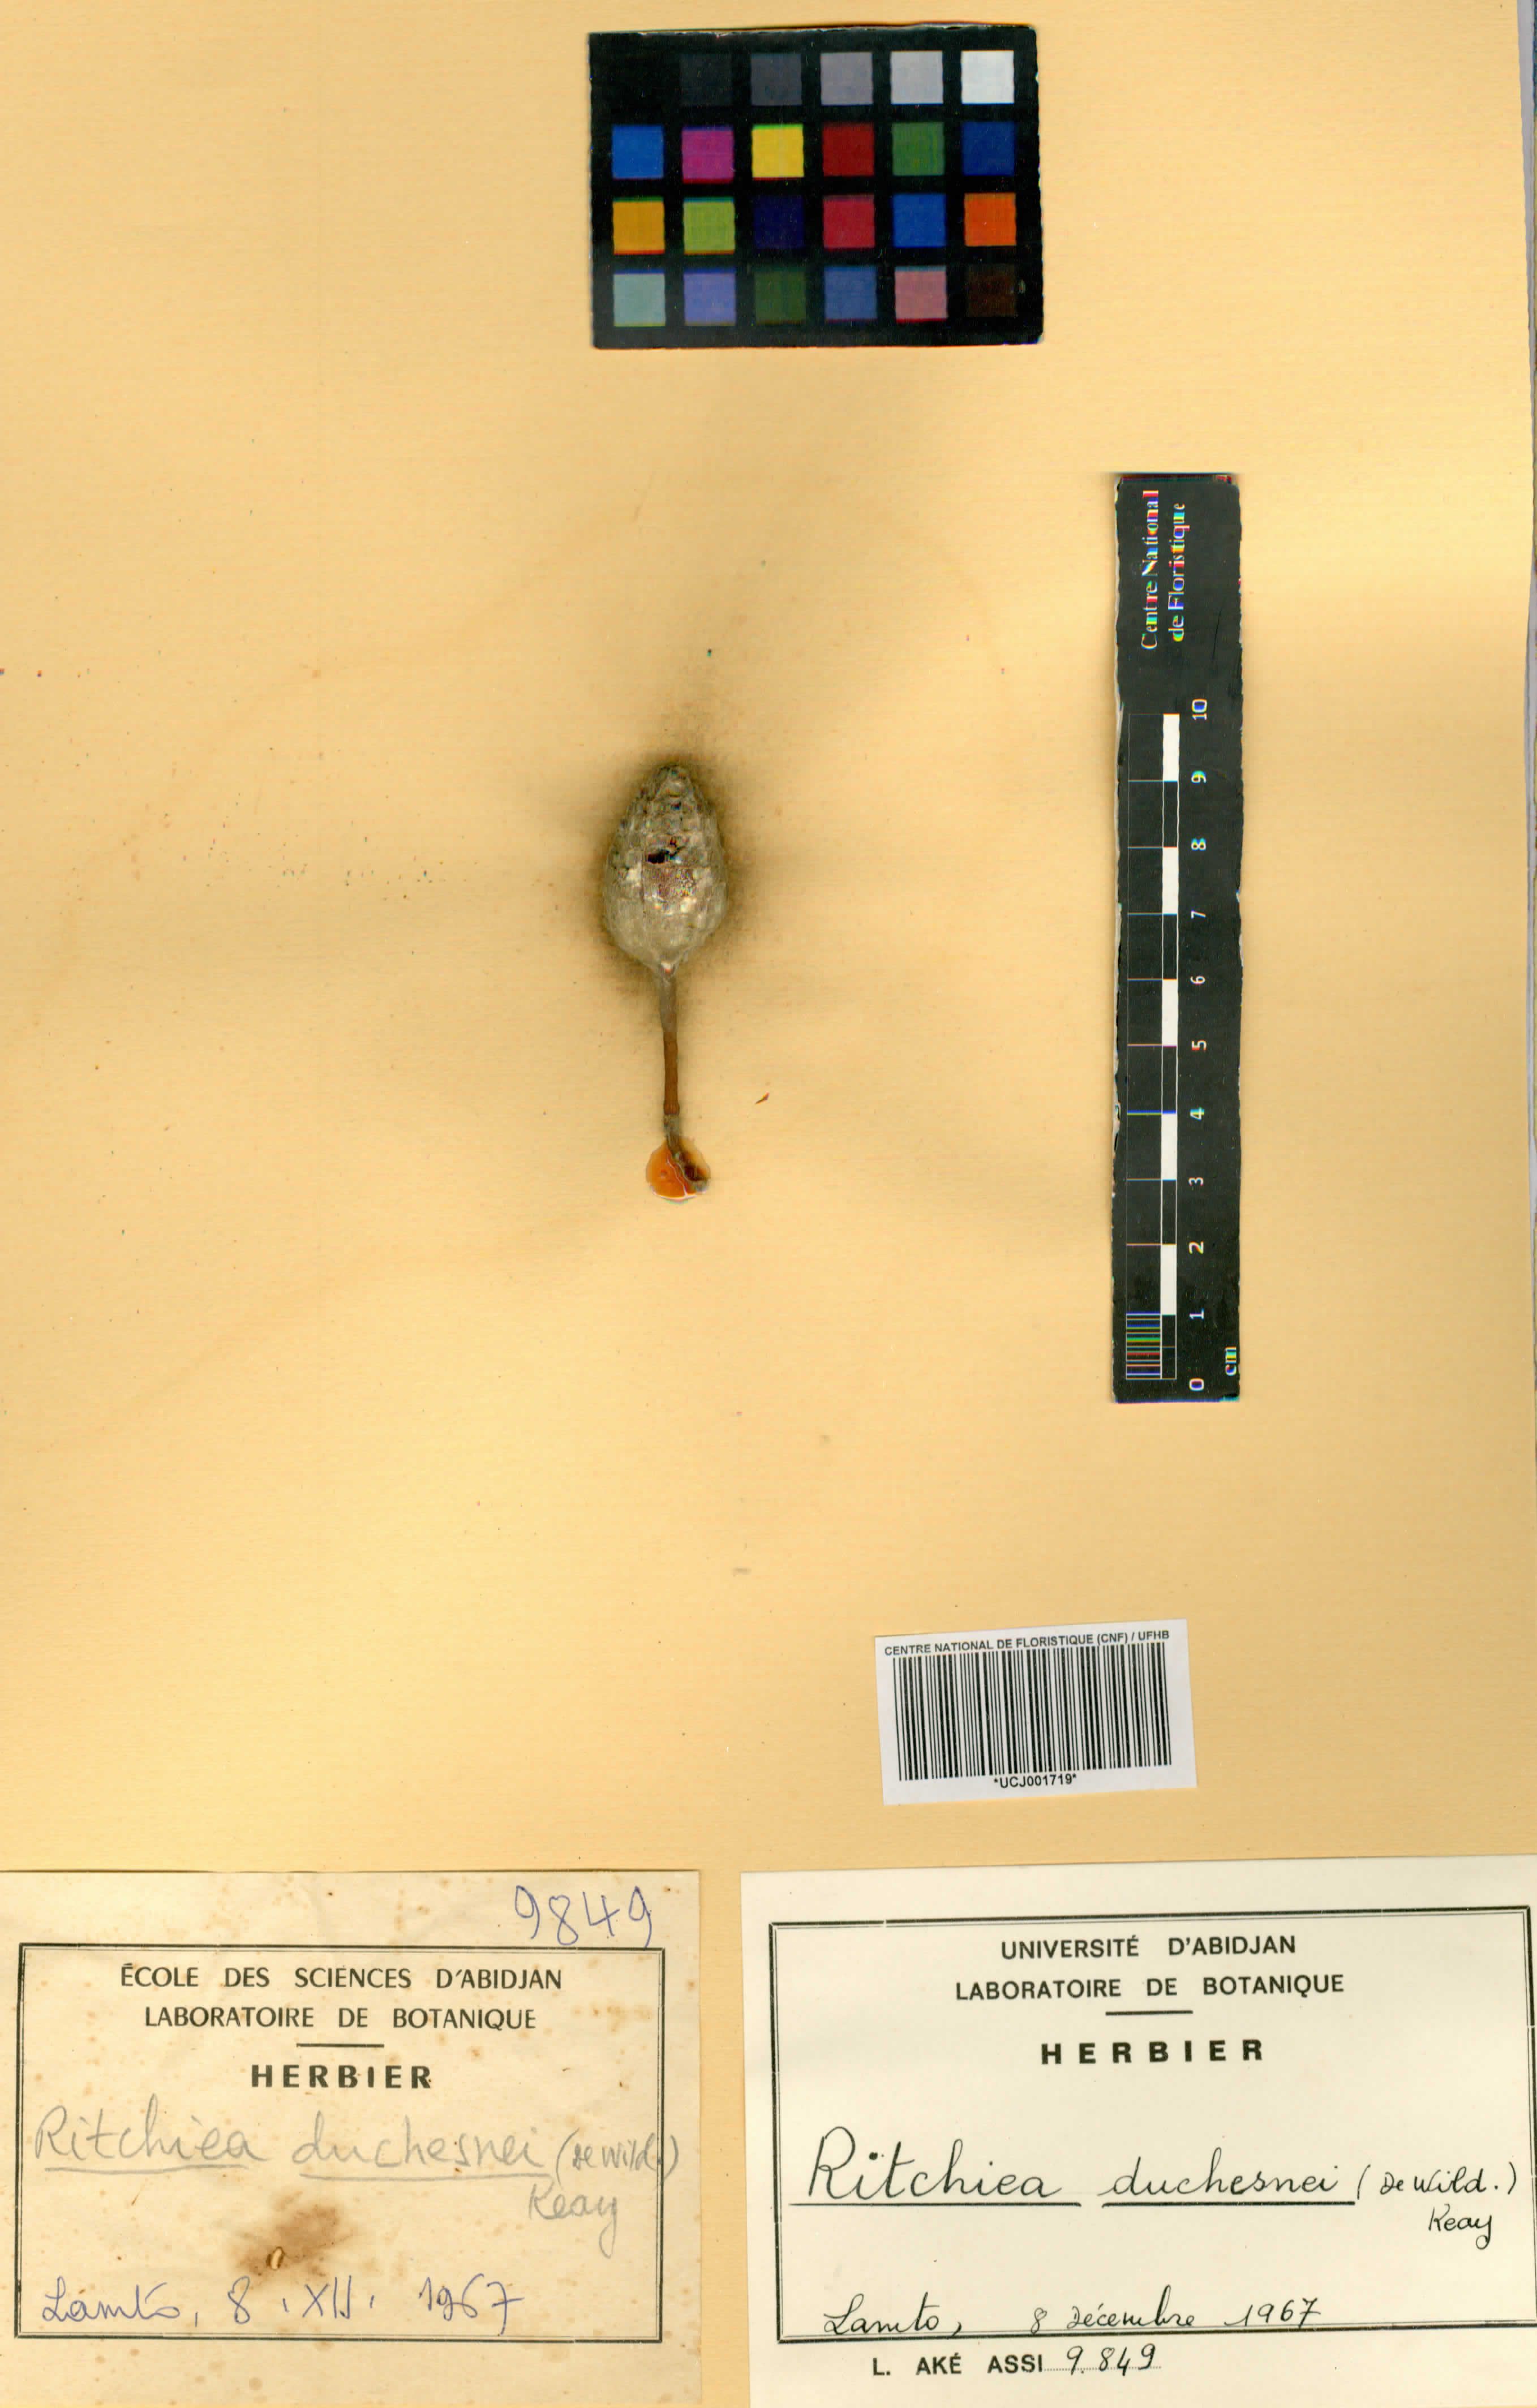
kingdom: Plantae
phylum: Tracheophyta
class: Magnoliopsida
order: Brassicales
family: Capparaceae
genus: Maerua
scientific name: Maerua duchesnei
